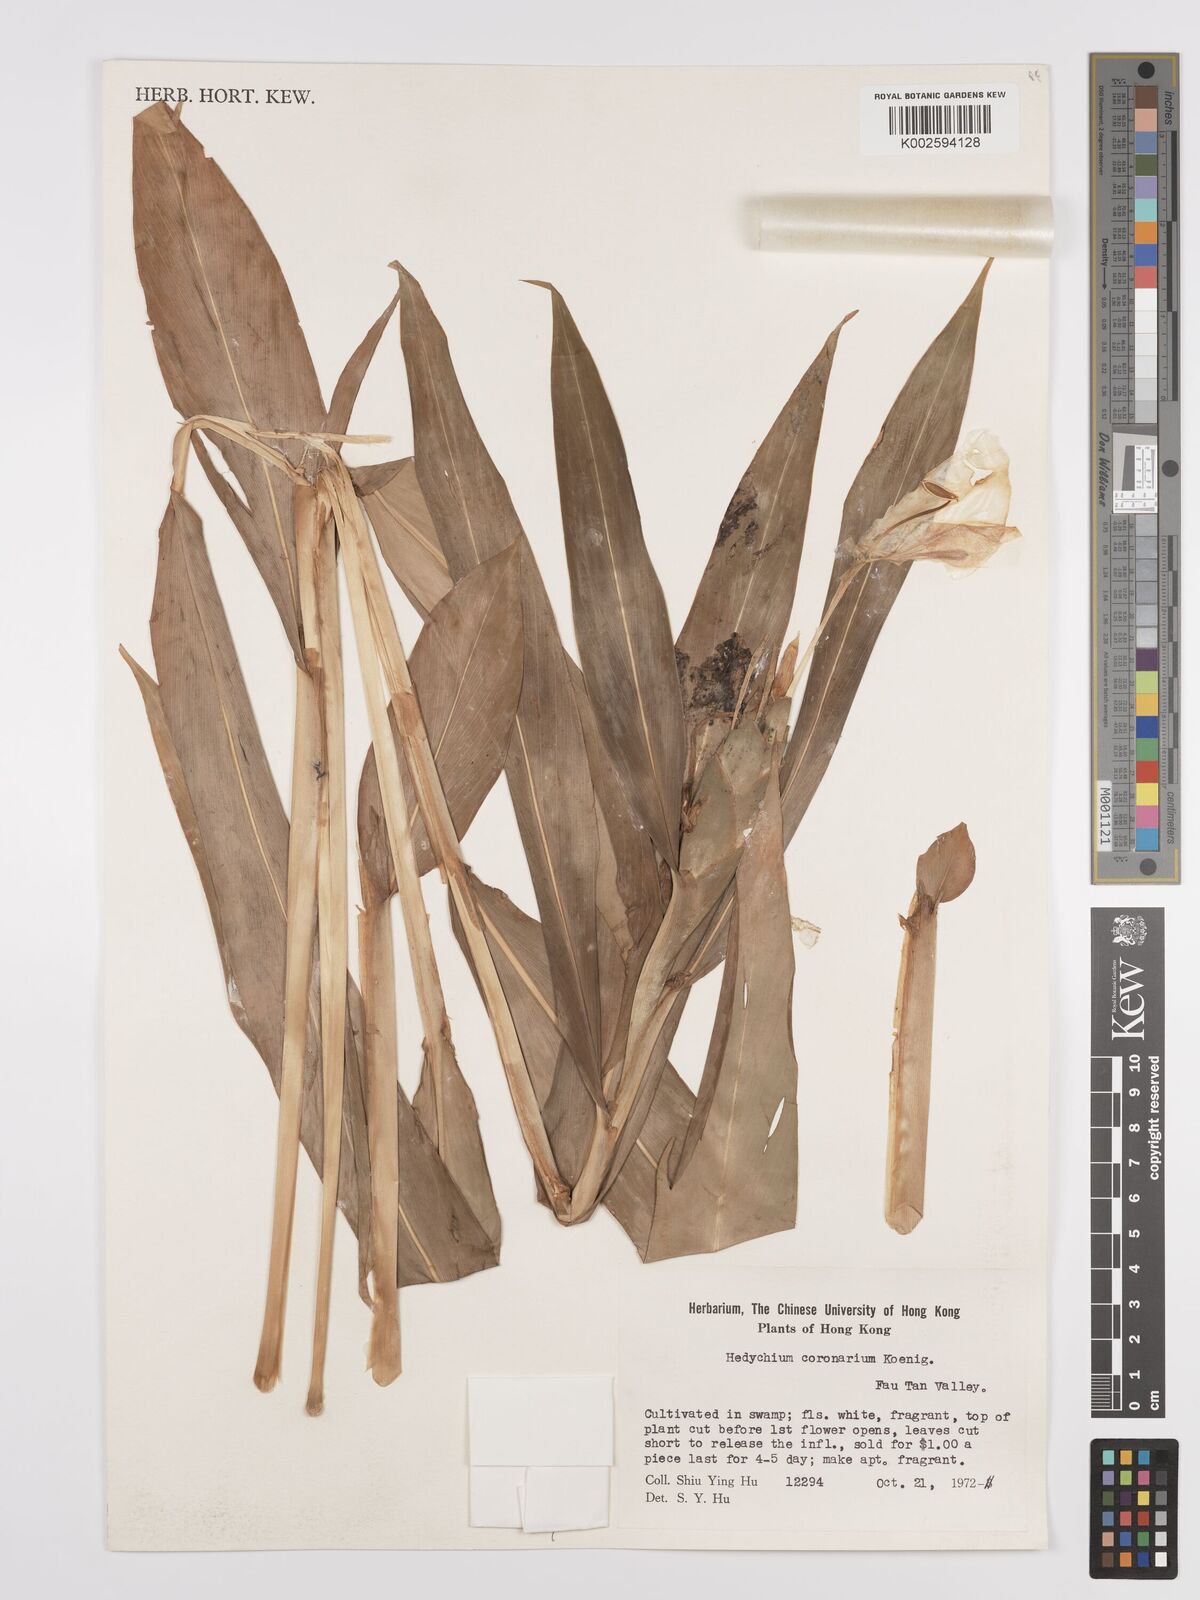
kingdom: Plantae
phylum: Tracheophyta
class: Liliopsida
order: Zingiberales
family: Zingiberaceae
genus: Hedychium
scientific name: Hedychium coronarium
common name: White garland-lily
